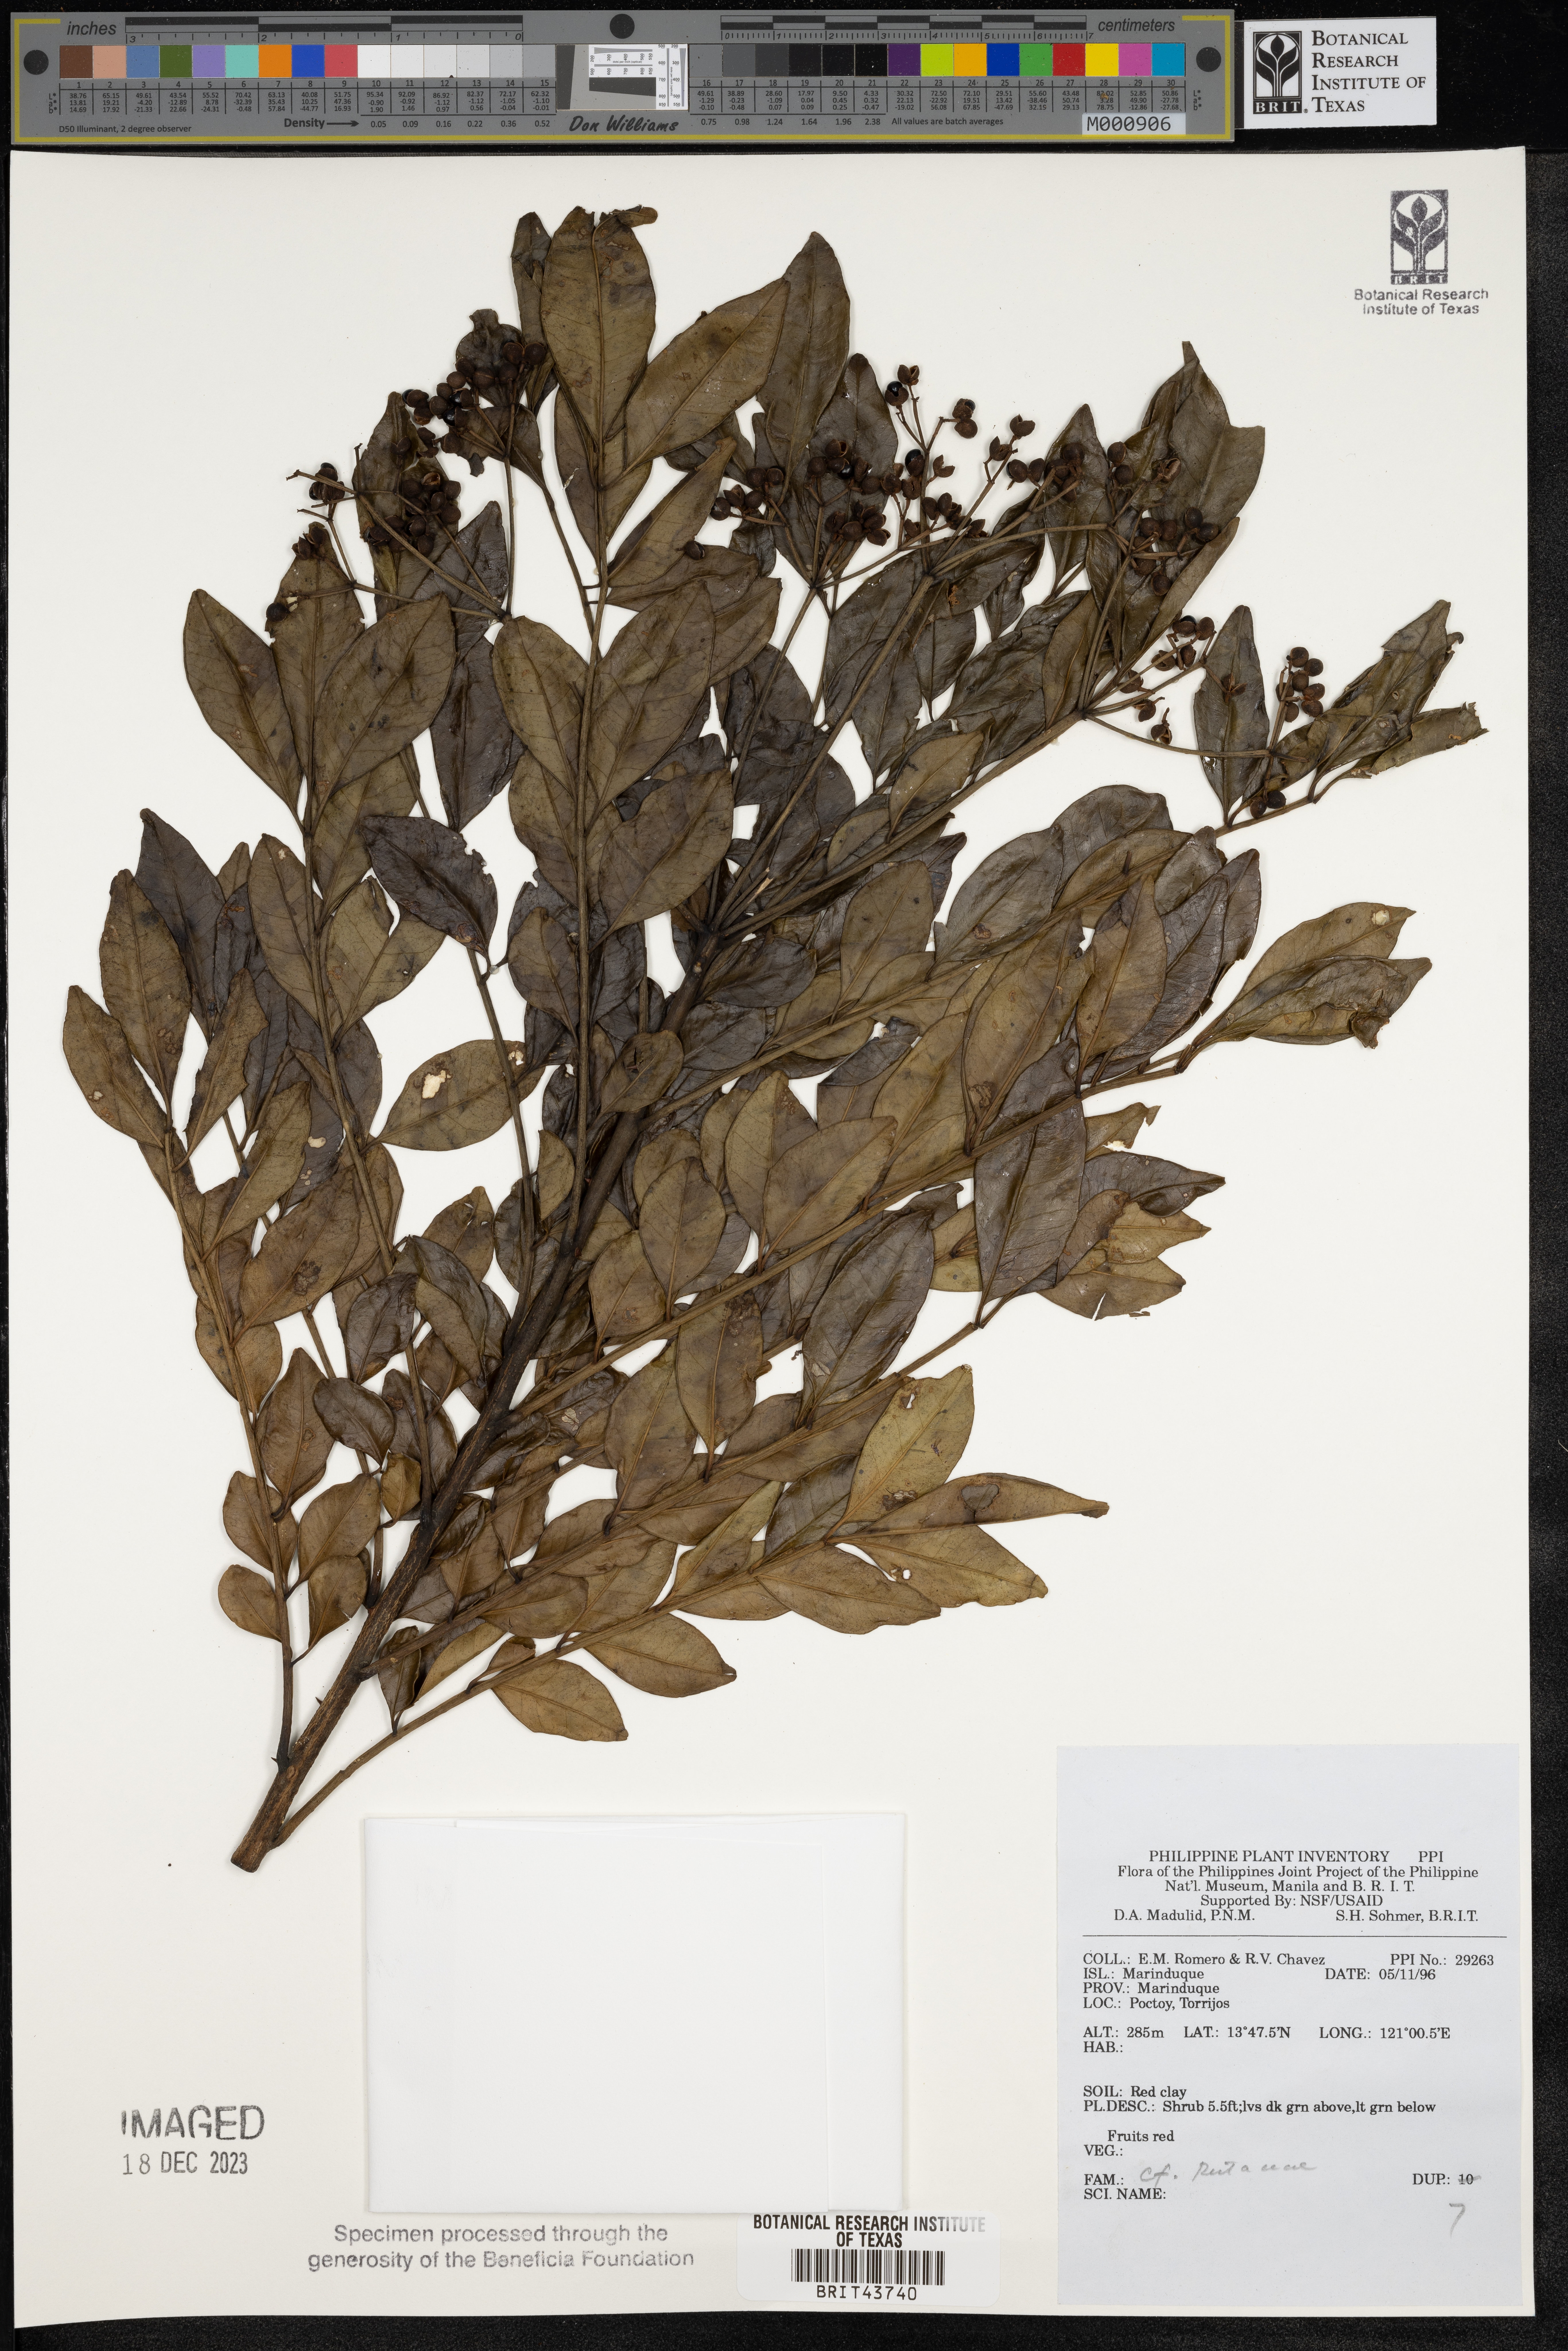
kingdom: Plantae
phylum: Tracheophyta
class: Magnoliopsida
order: Sapindales
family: Rutaceae
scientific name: Rutaceae
